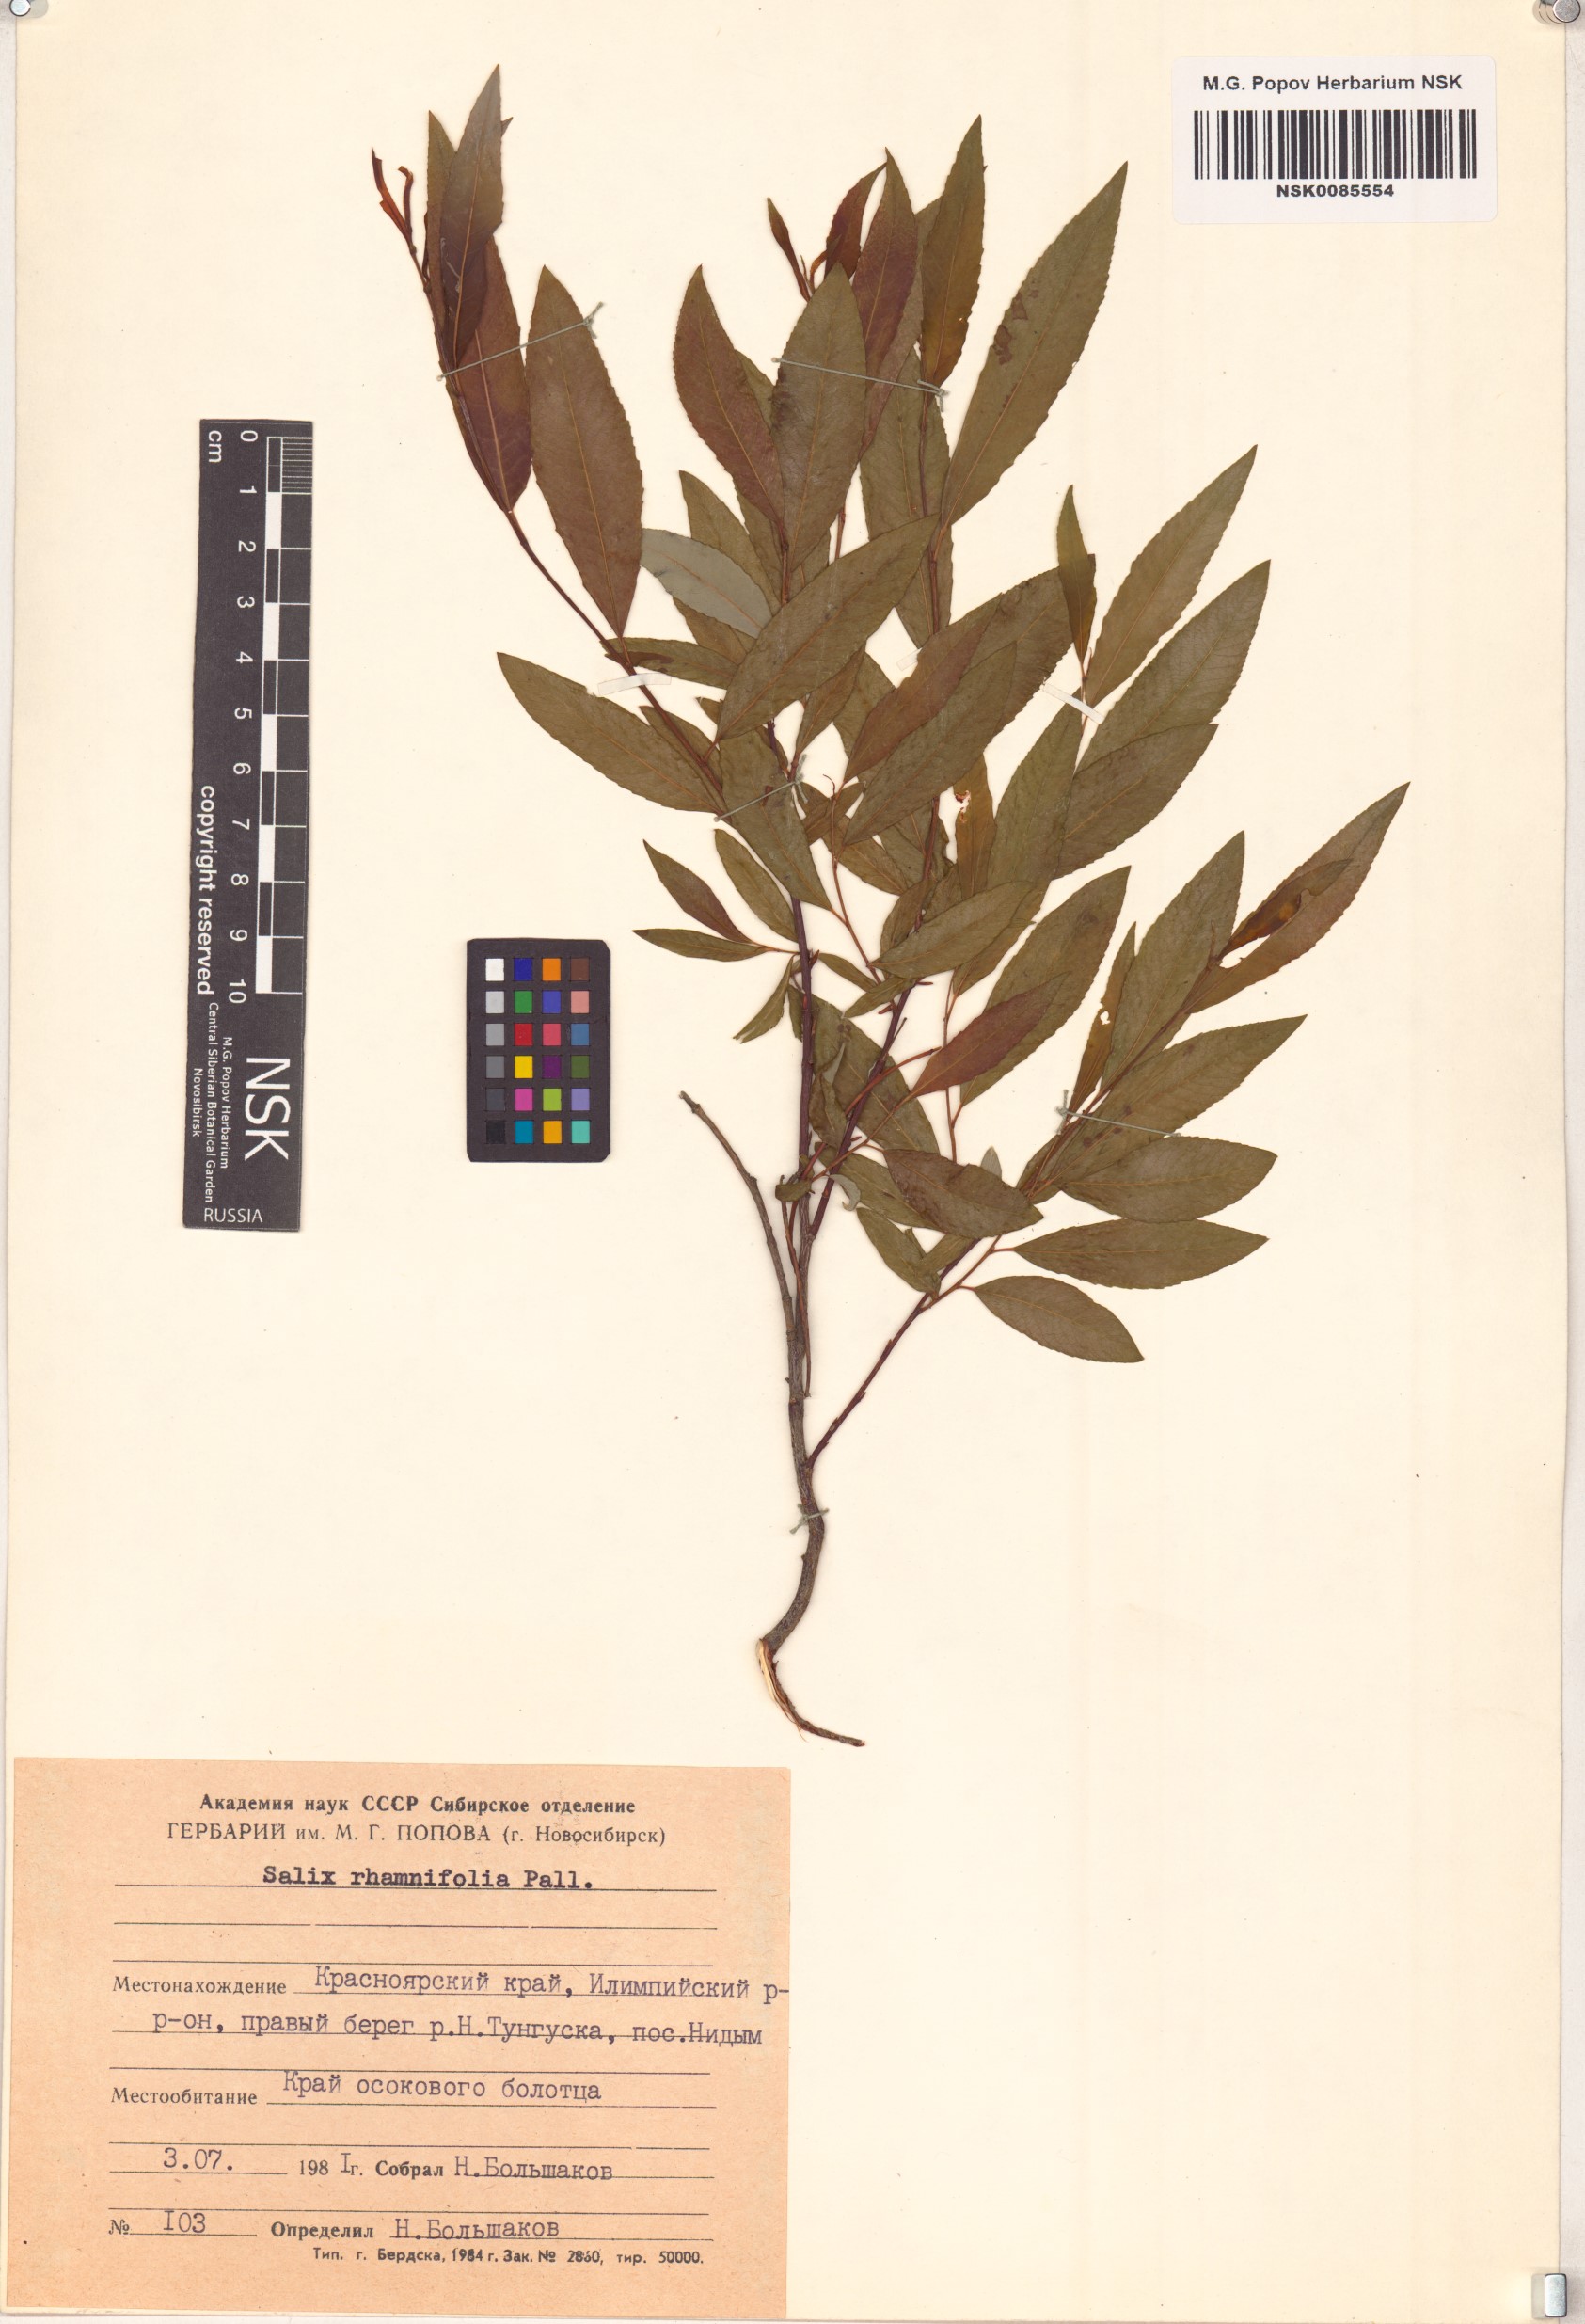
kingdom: Plantae
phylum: Tracheophyta
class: Magnoliopsida
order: Malpighiales
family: Salicaceae
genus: Salix
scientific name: Salix rhamnifolia
